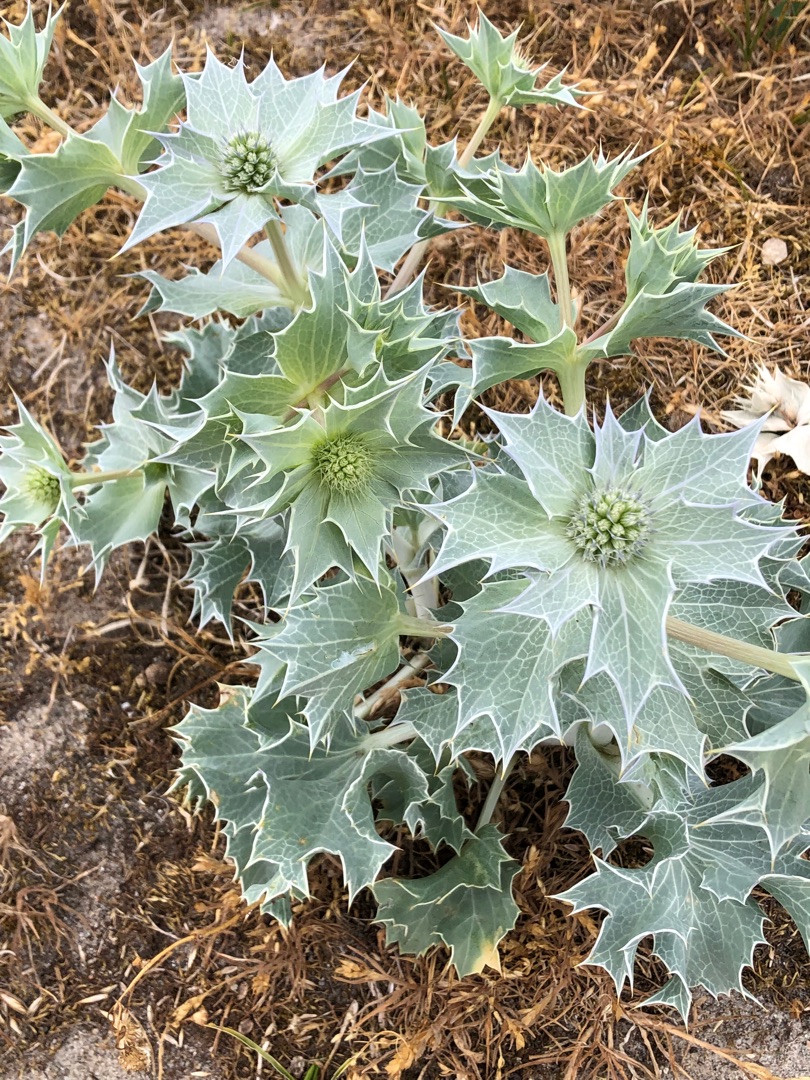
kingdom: Plantae
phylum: Tracheophyta
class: Magnoliopsida
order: Apiales
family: Apiaceae
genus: Eryngium
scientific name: Eryngium maritimum
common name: Strand-mandstro
